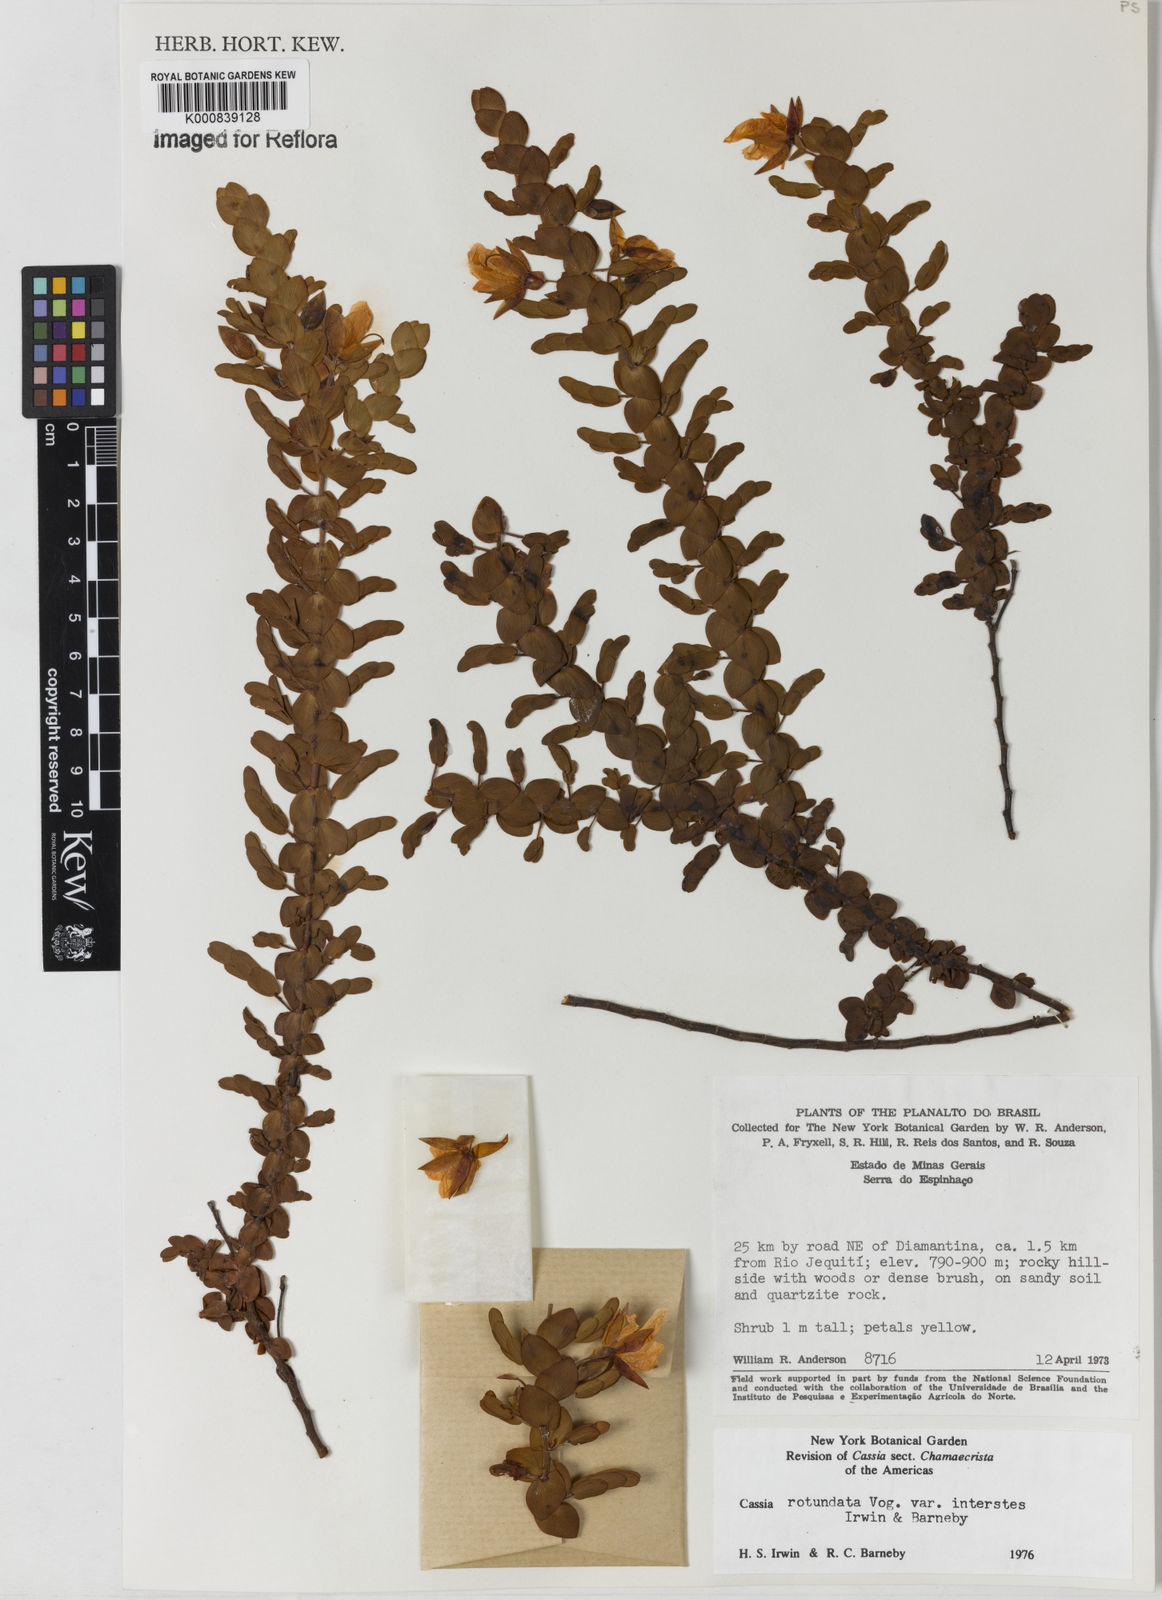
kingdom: Plantae
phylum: Tracheophyta
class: Magnoliopsida
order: Fabales
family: Fabaceae
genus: Chamaecrista
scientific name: Chamaecrista
